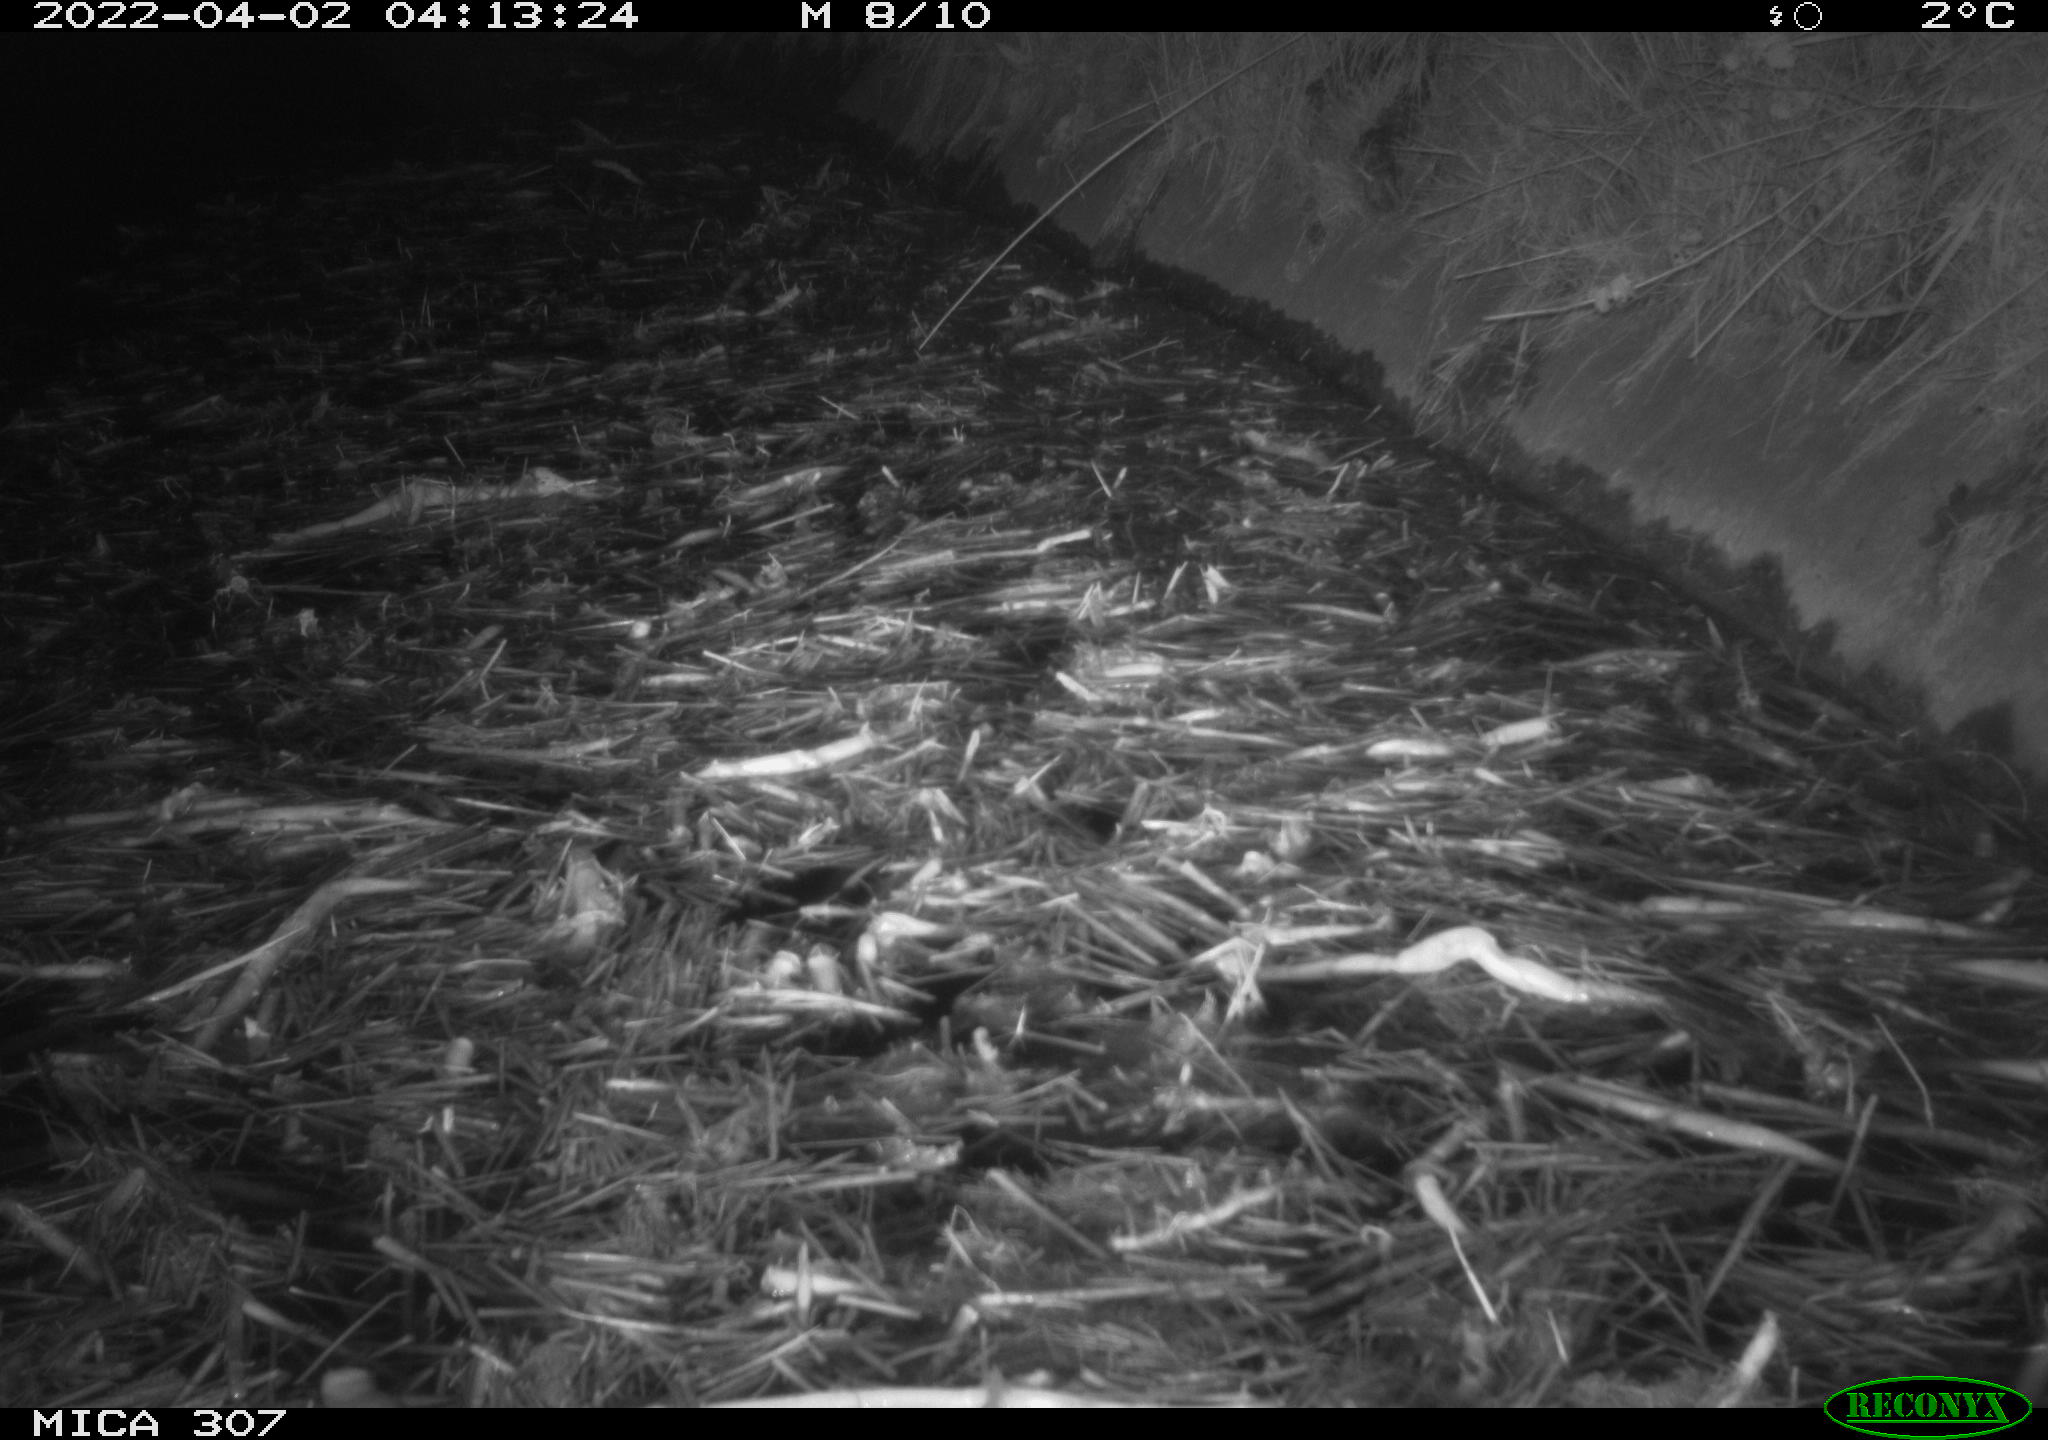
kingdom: Animalia
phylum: Chordata
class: Aves
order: Anseriformes
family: Anatidae
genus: Anas
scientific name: Anas platyrhynchos
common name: Mallard
